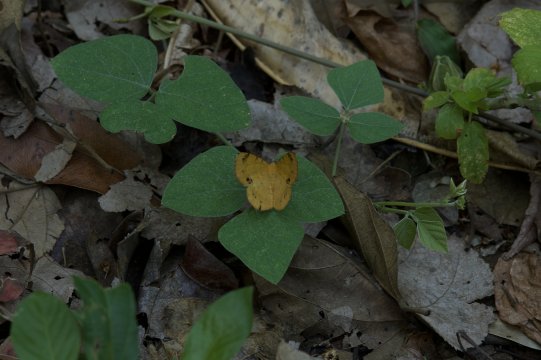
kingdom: Animalia
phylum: Arthropoda
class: Insecta
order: Lepidoptera
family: Riodinidae
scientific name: Riodinidae
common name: Metalmarks
